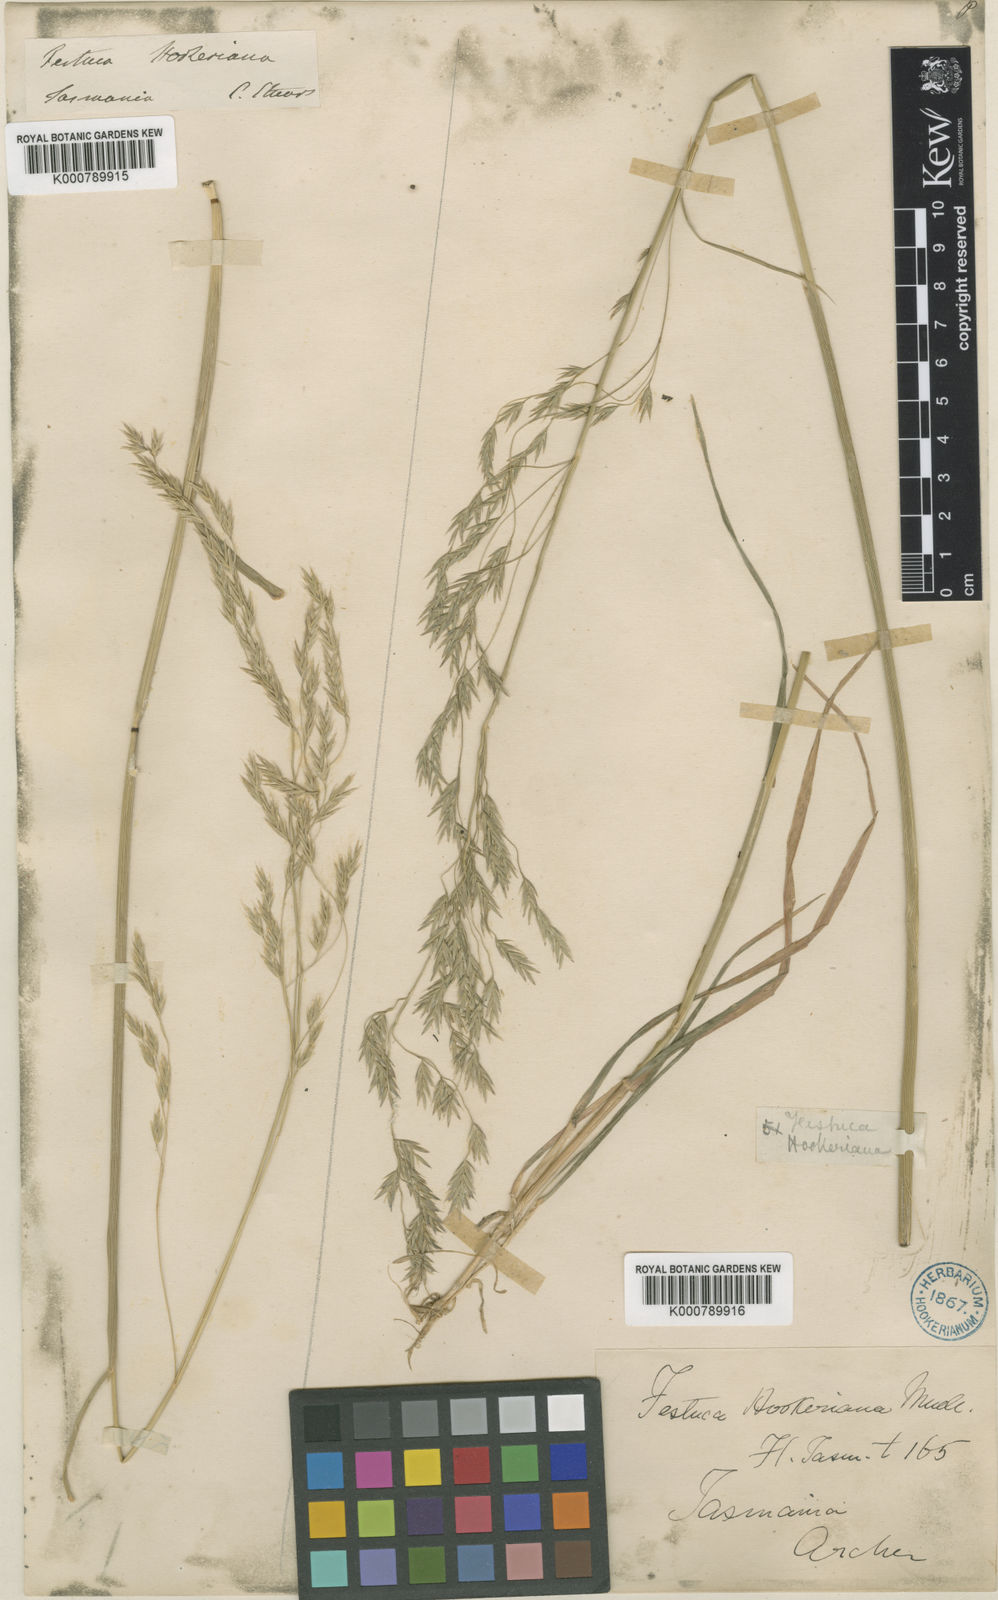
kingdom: Plantae
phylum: Tracheophyta
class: Liliopsida
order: Poales
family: Poaceae
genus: Hookerochloa
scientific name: Hookerochloa hookeriana
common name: Hooker's-fescue
